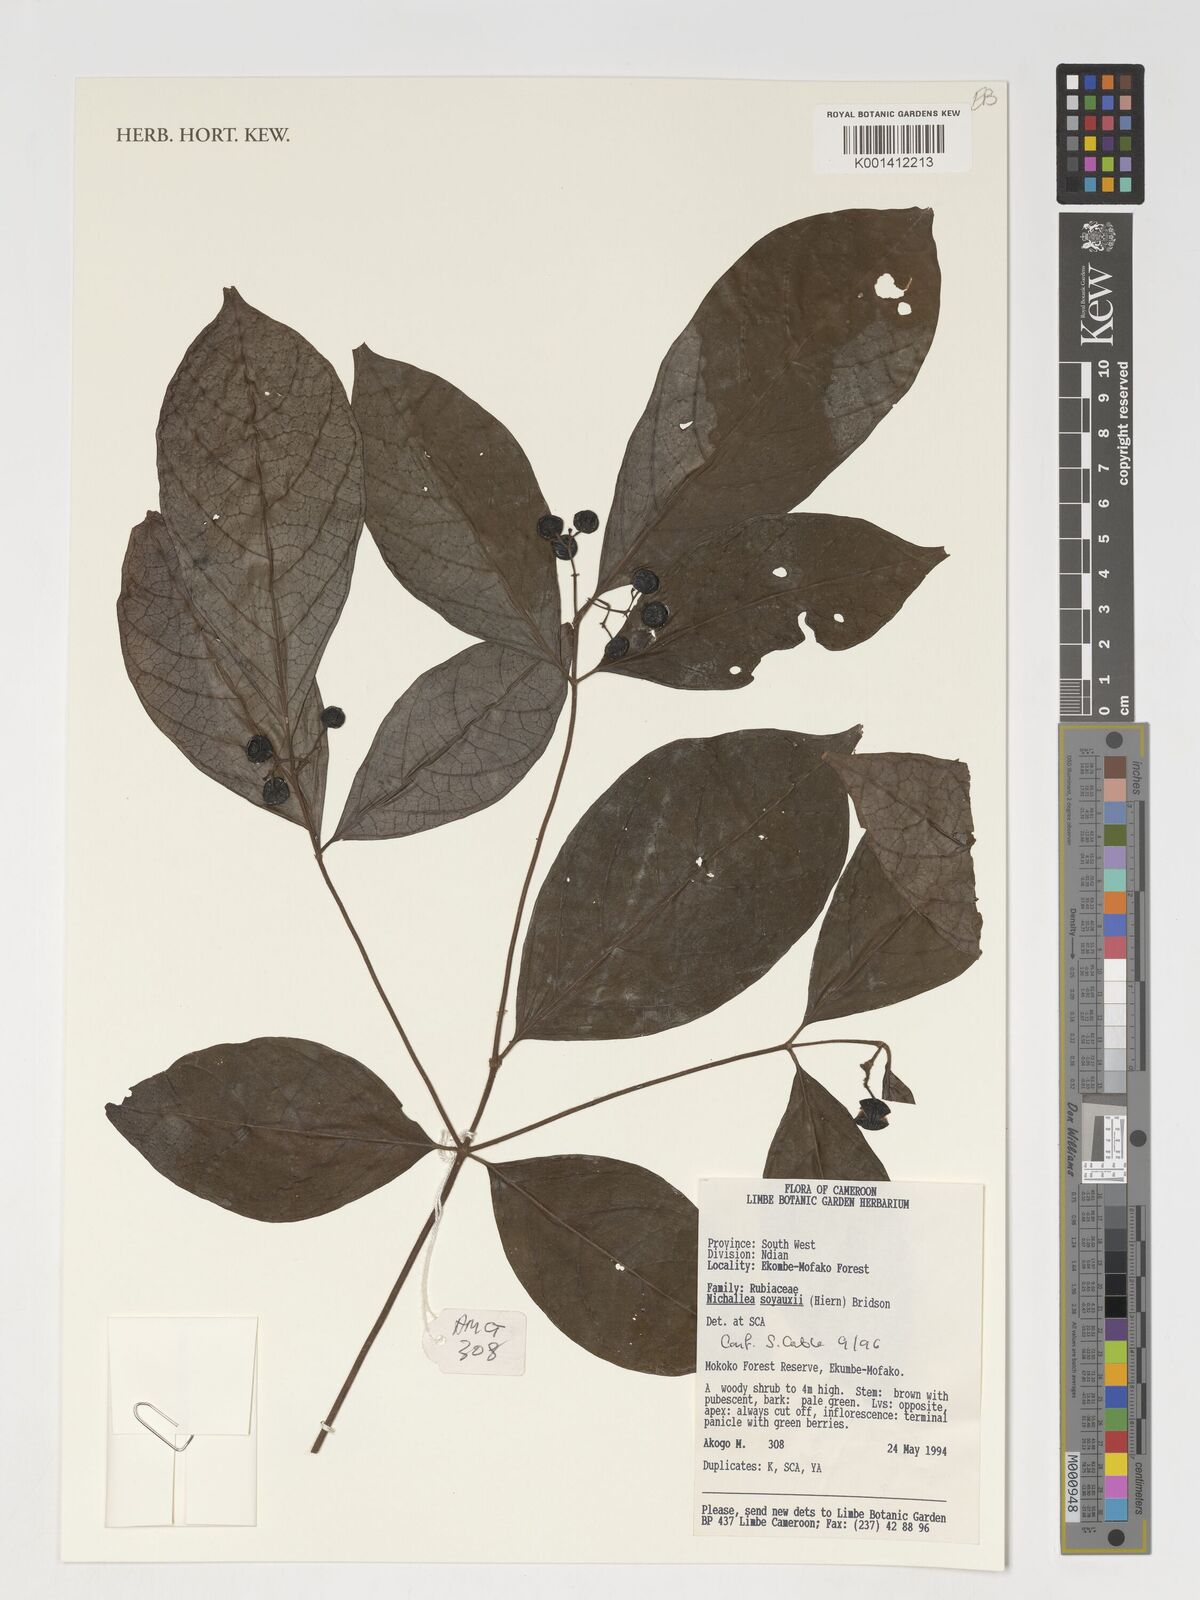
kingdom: Plantae
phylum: Tracheophyta
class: Magnoliopsida
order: Gentianales
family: Rubiaceae
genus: Nichallea
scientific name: Nichallea soyauxii
